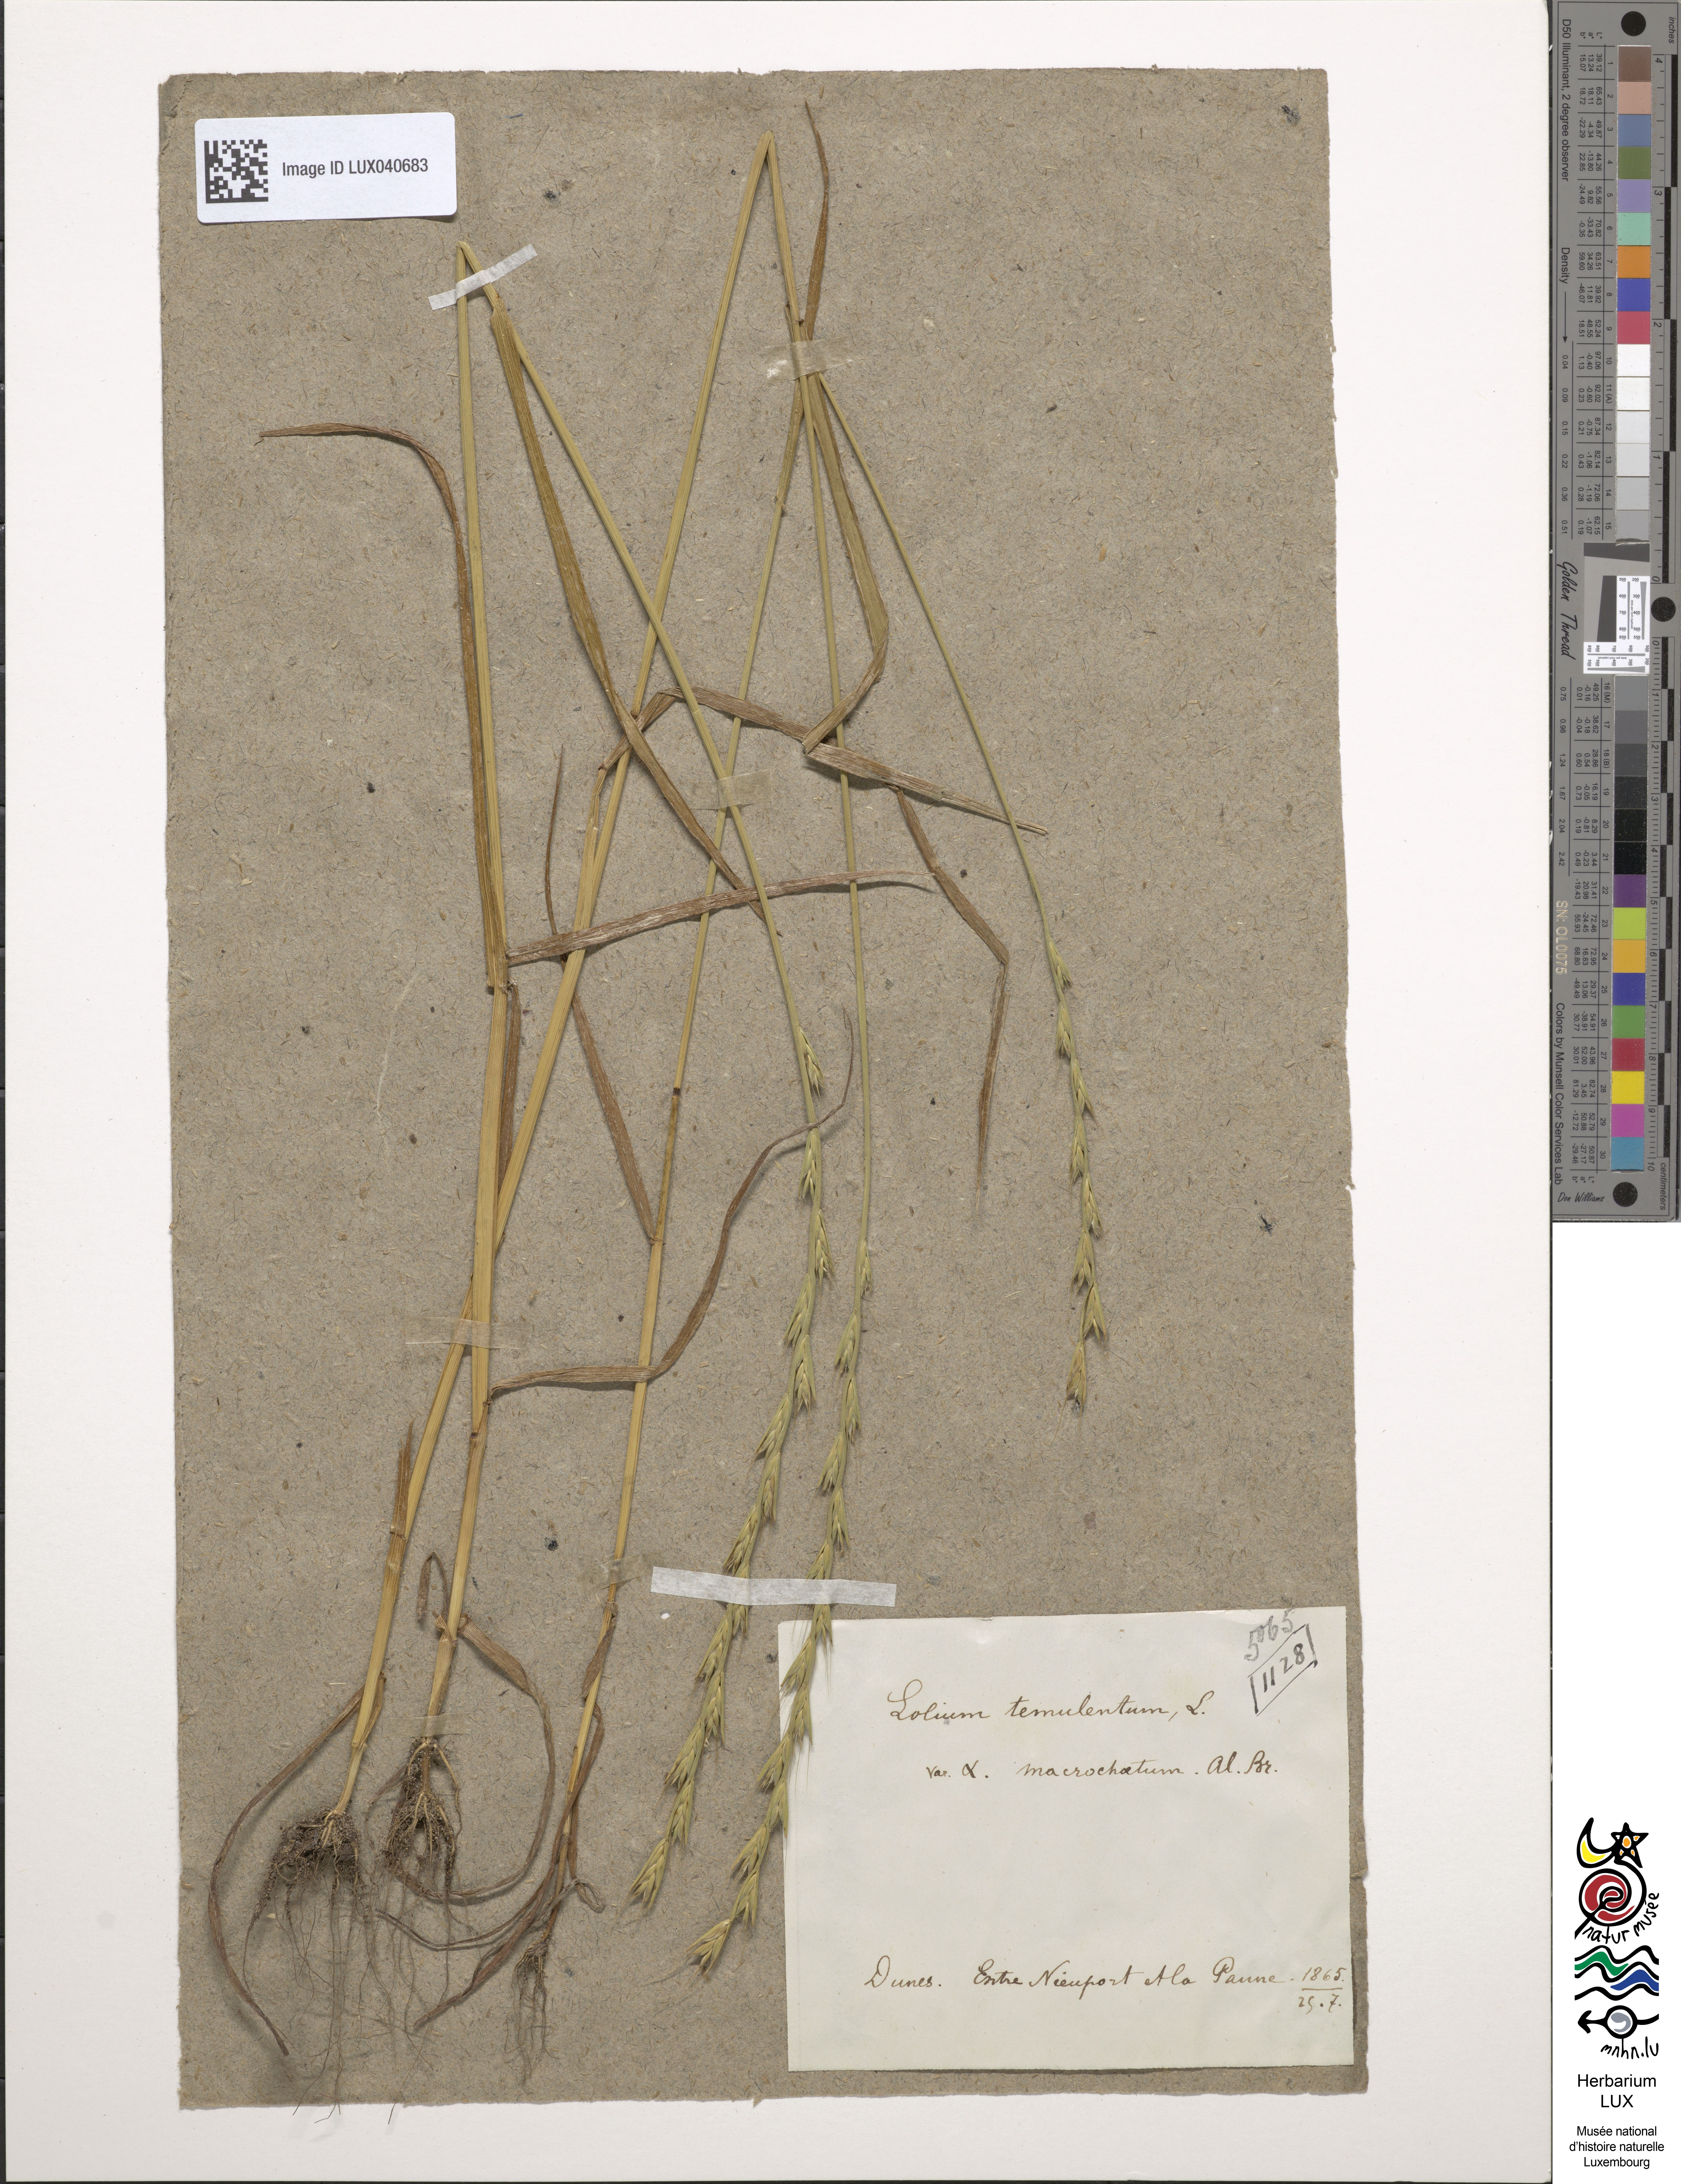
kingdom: Plantae
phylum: Tracheophyta
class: Liliopsida
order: Poales
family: Poaceae
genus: Lolium
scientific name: Lolium temulentum
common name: Darnel
